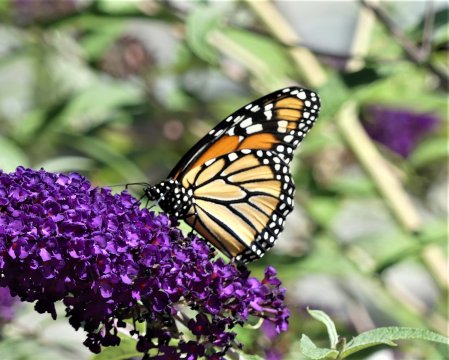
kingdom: Animalia
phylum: Arthropoda
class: Insecta
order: Lepidoptera
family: Nymphalidae
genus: Danaus
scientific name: Danaus plexippus
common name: Monarch
